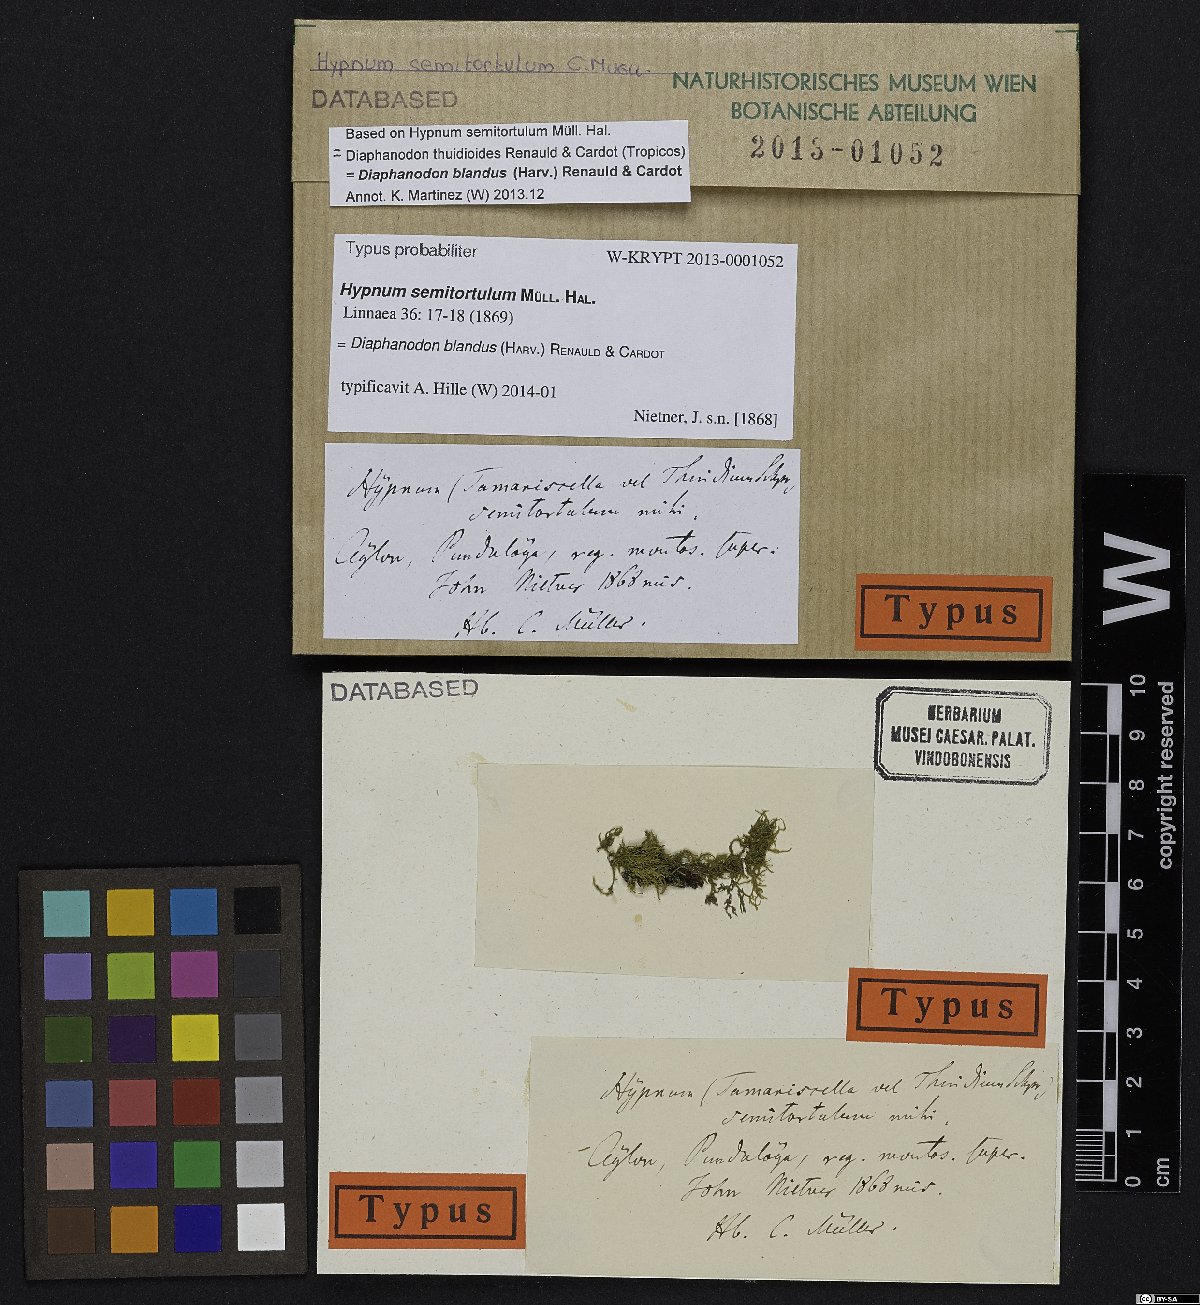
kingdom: Plantae
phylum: Bryophyta
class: Bryopsida
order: Hypnales
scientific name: Hypnales
